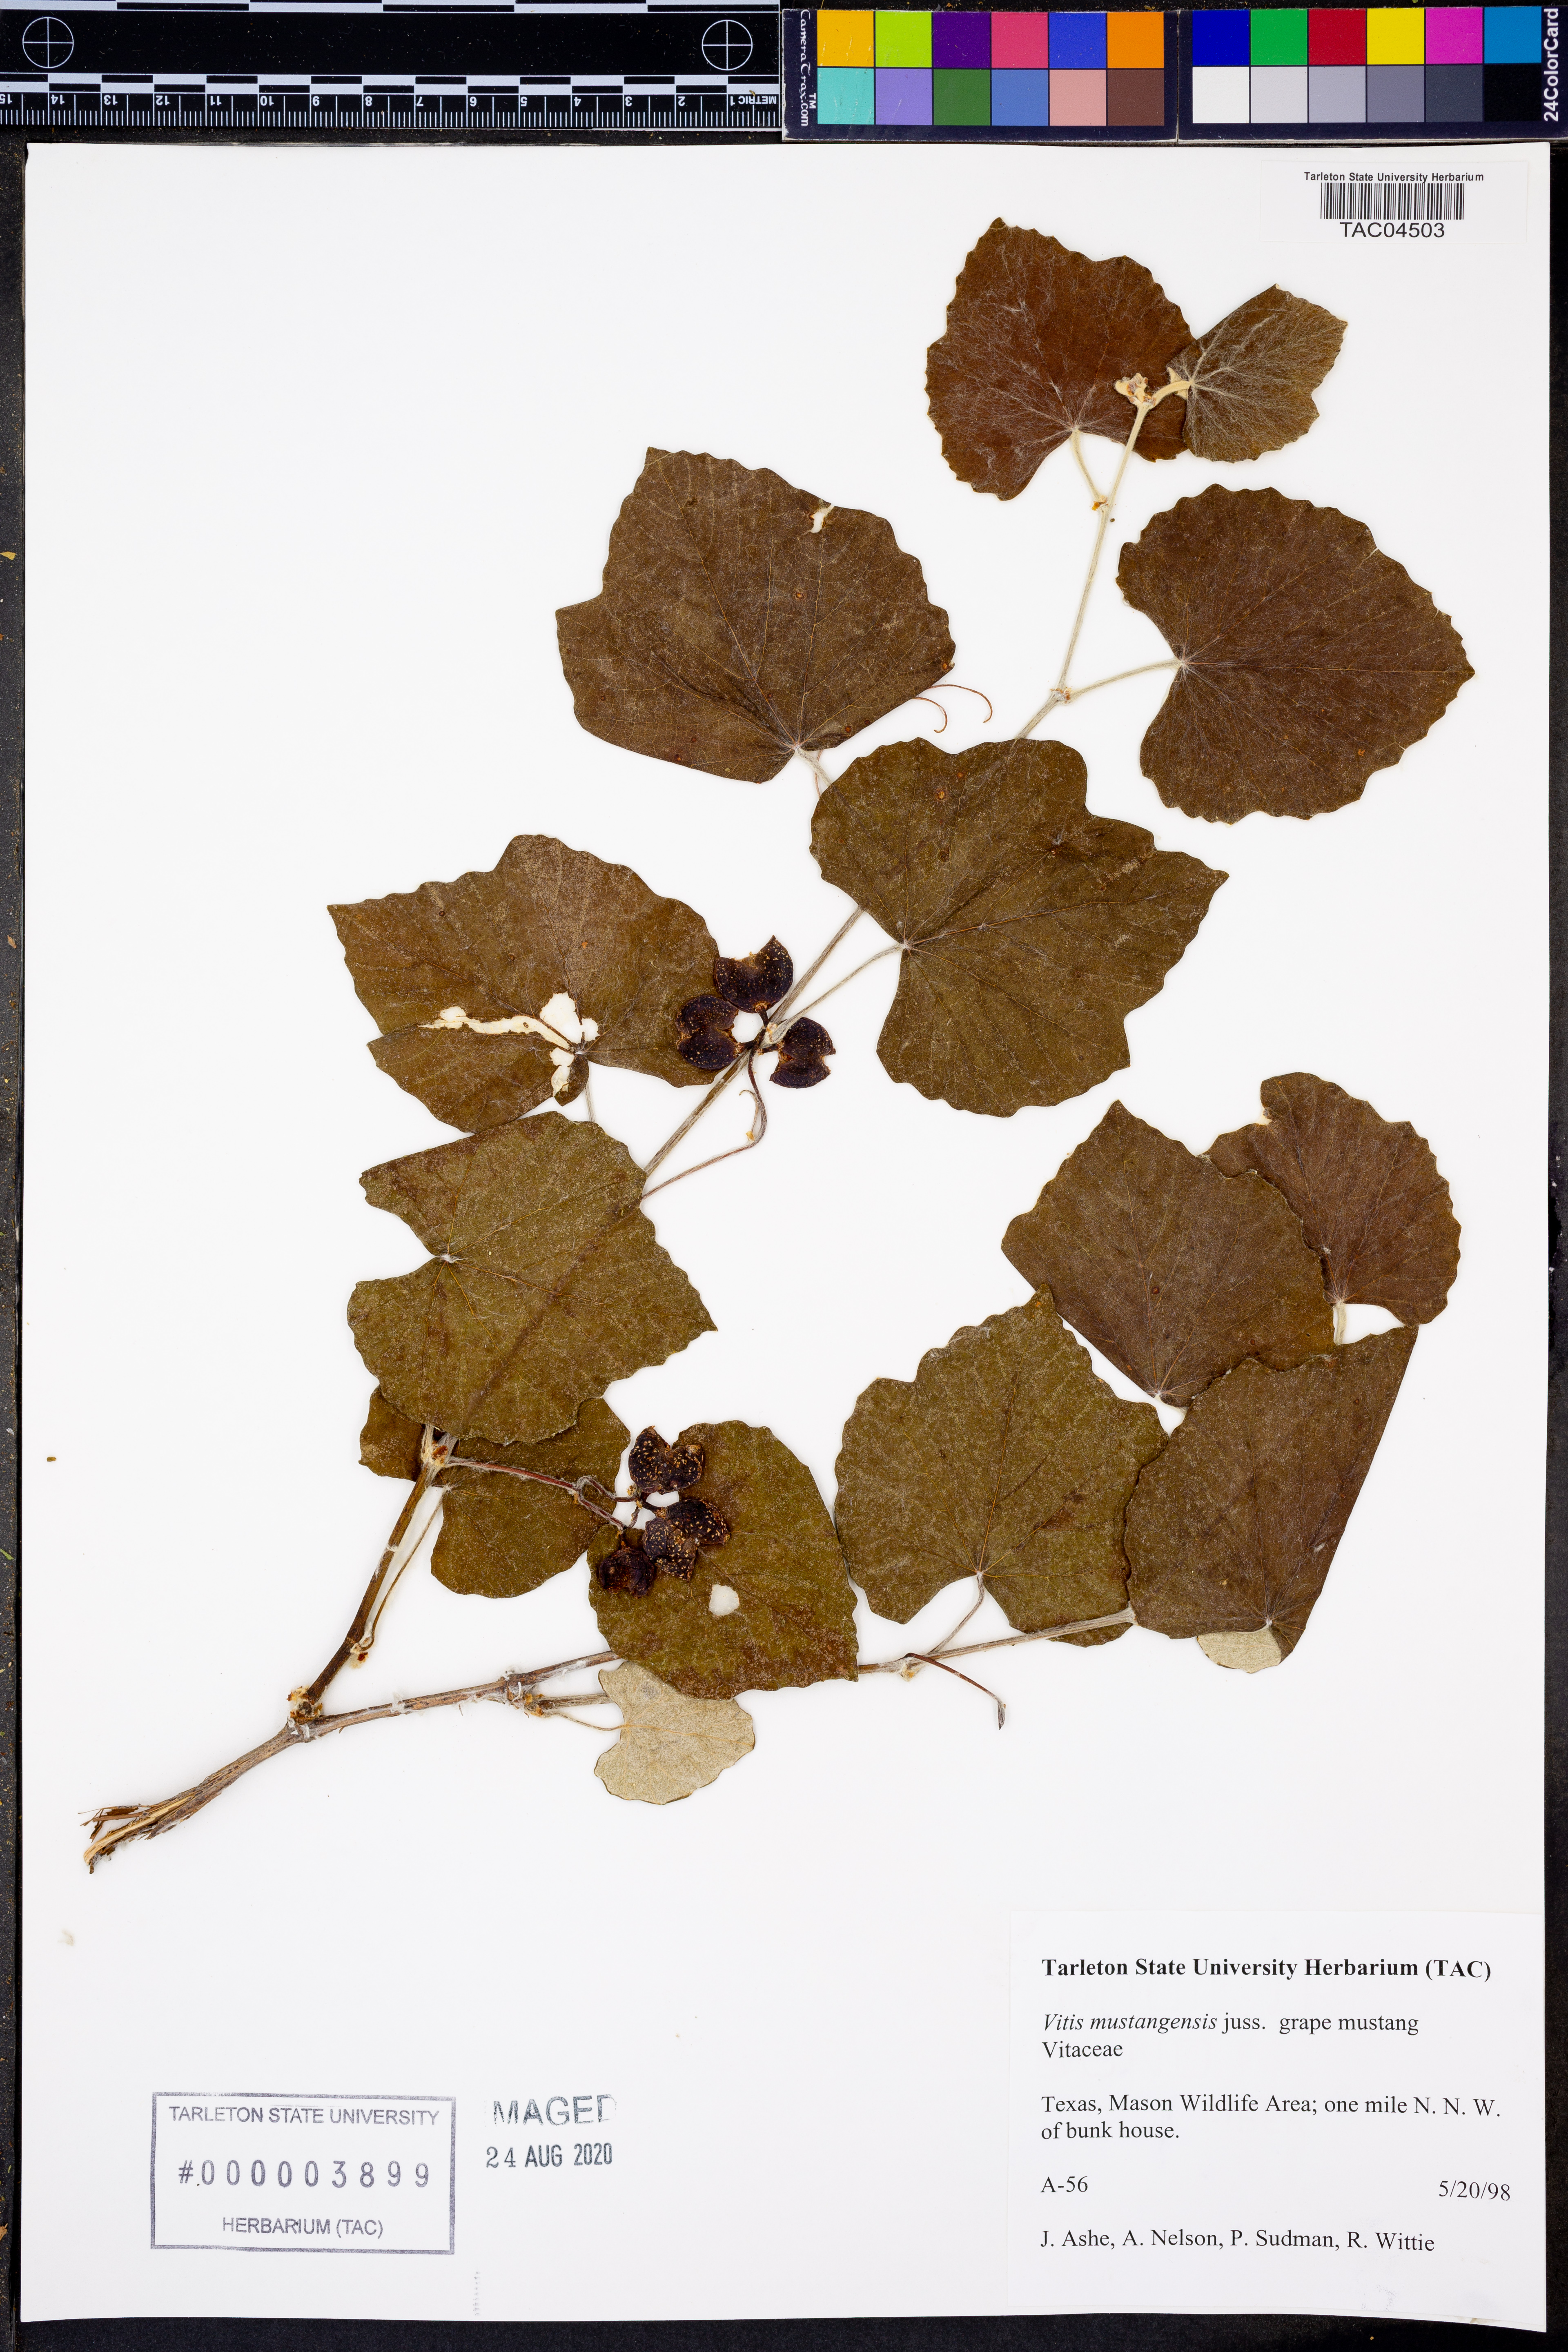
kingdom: Plantae
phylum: Tracheophyta
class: Magnoliopsida
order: Vitales
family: Vitaceae
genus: Vitis
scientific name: Vitis mustangensis
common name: Mustang grape
